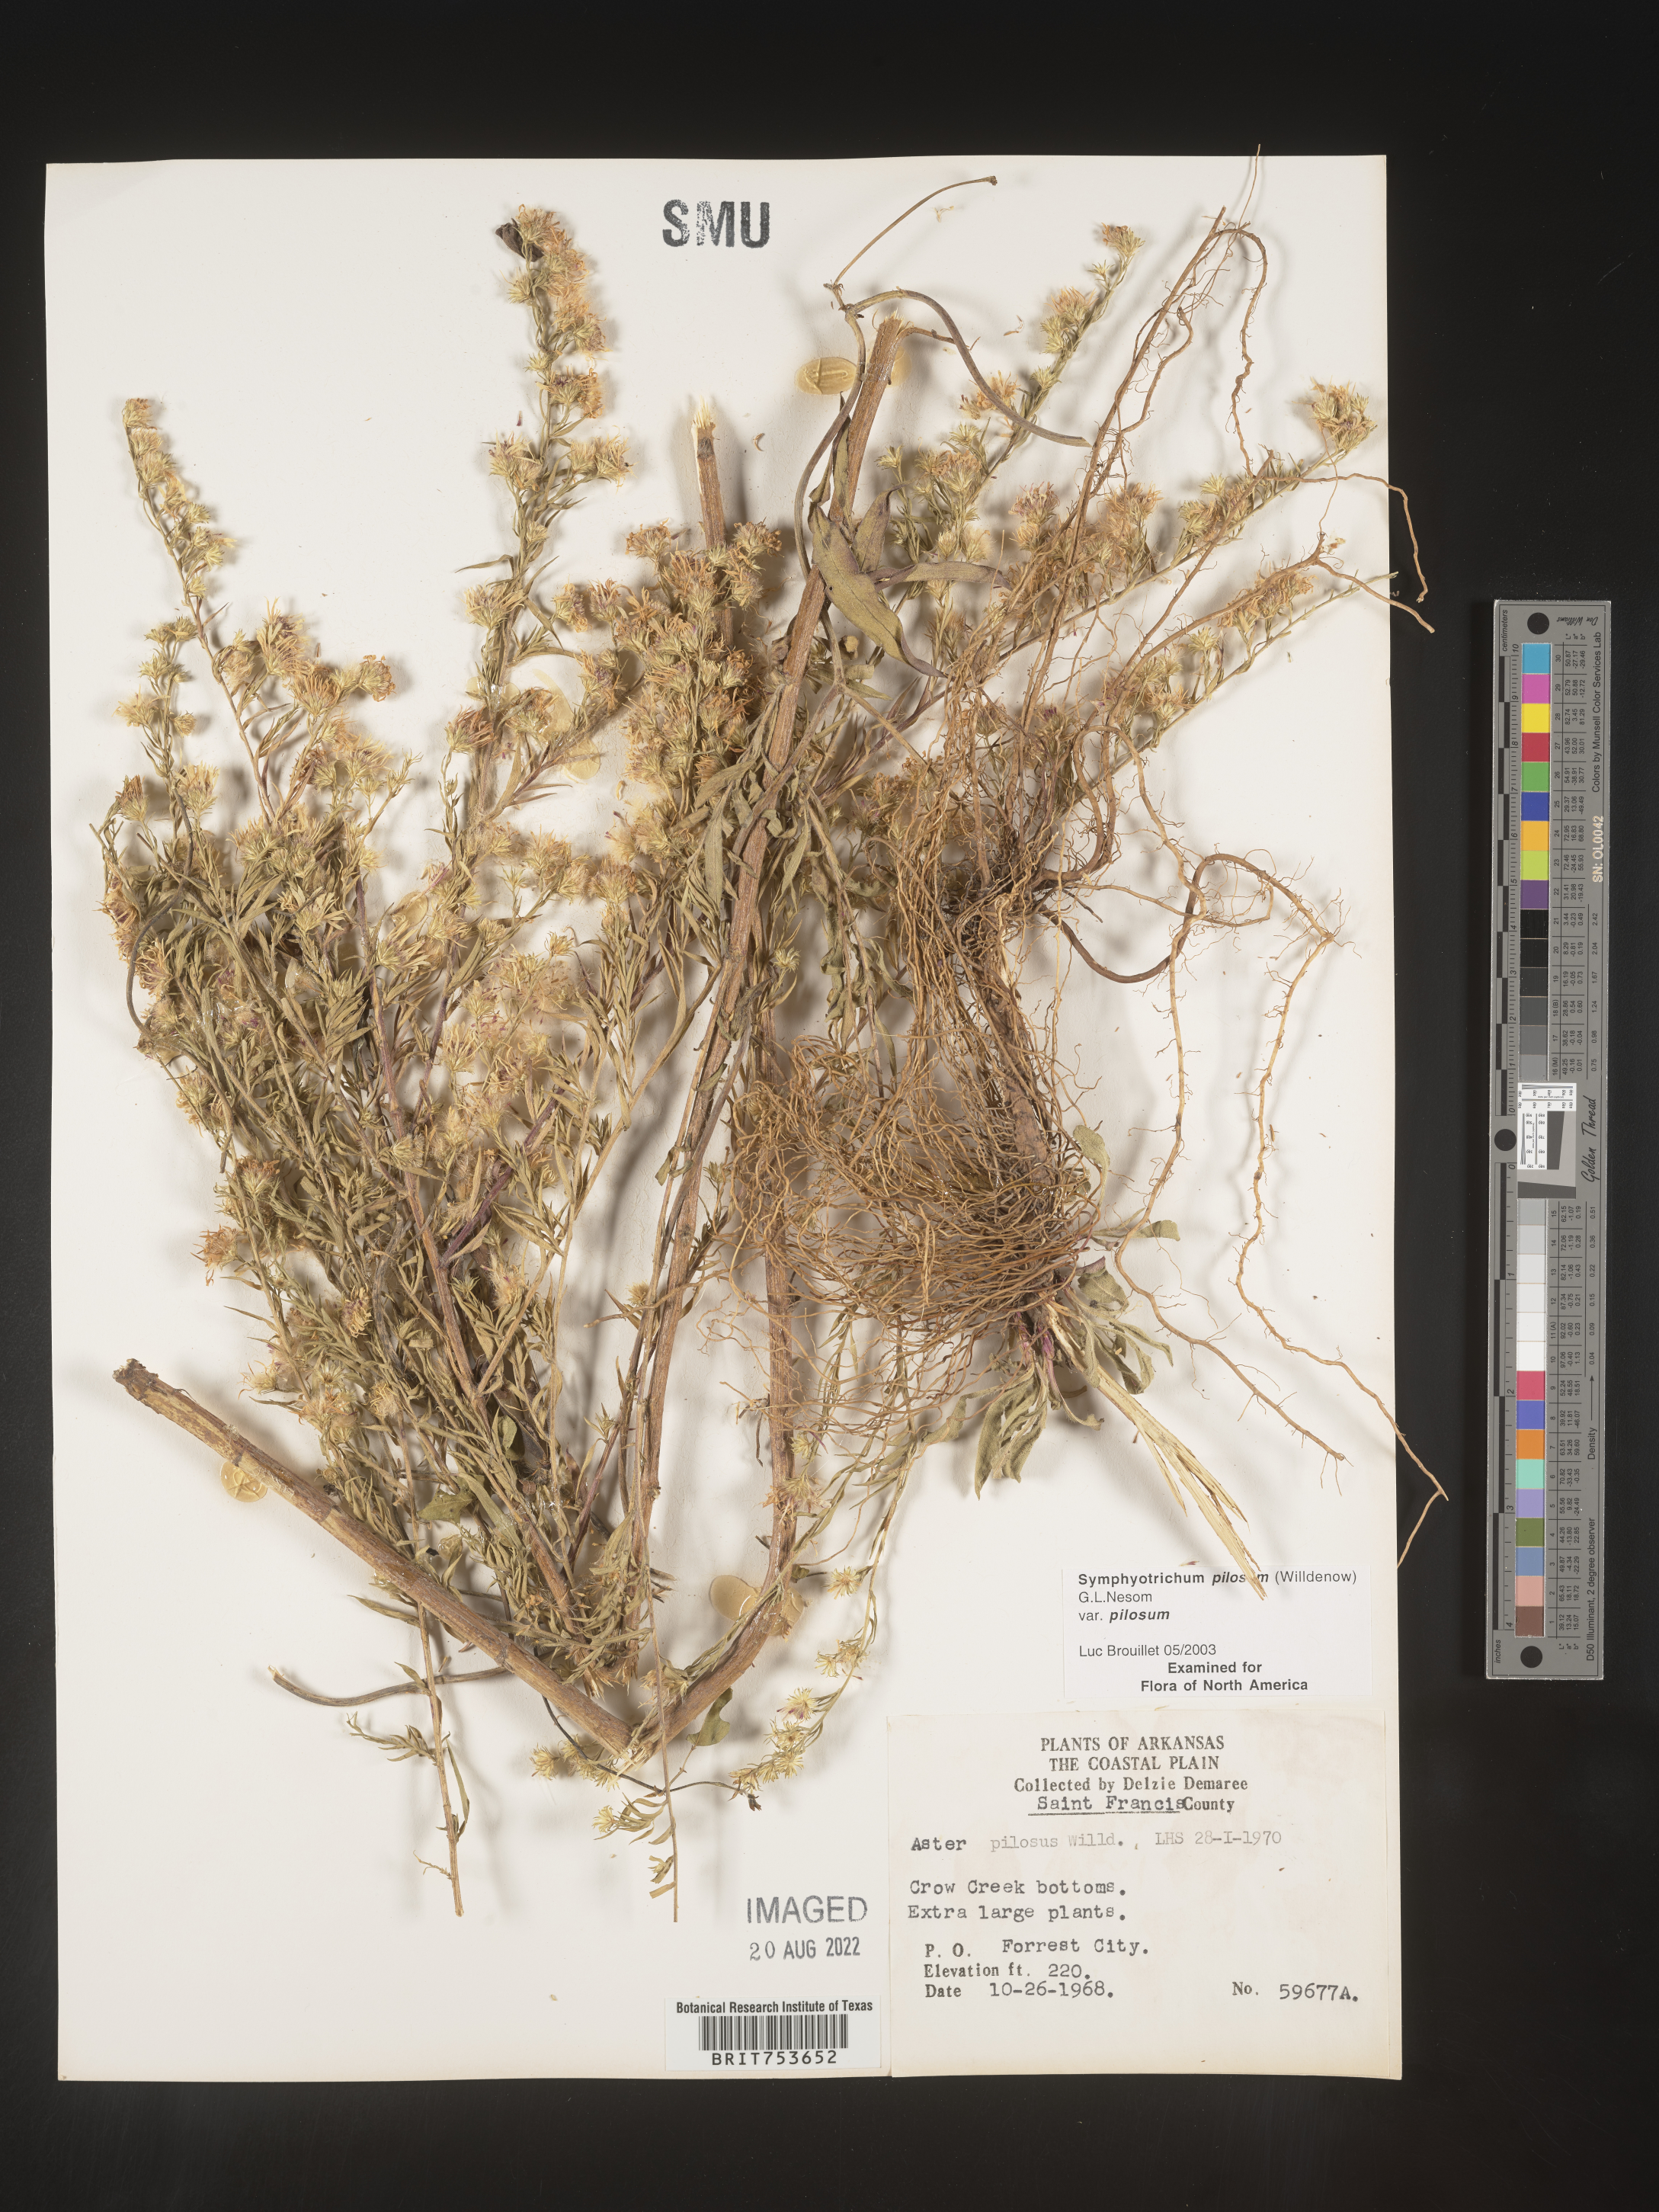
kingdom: Plantae
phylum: Tracheophyta
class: Magnoliopsida
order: Asterales
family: Asteraceae
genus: Symphyotrichum
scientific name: Symphyotrichum pilosum
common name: Awl aster
